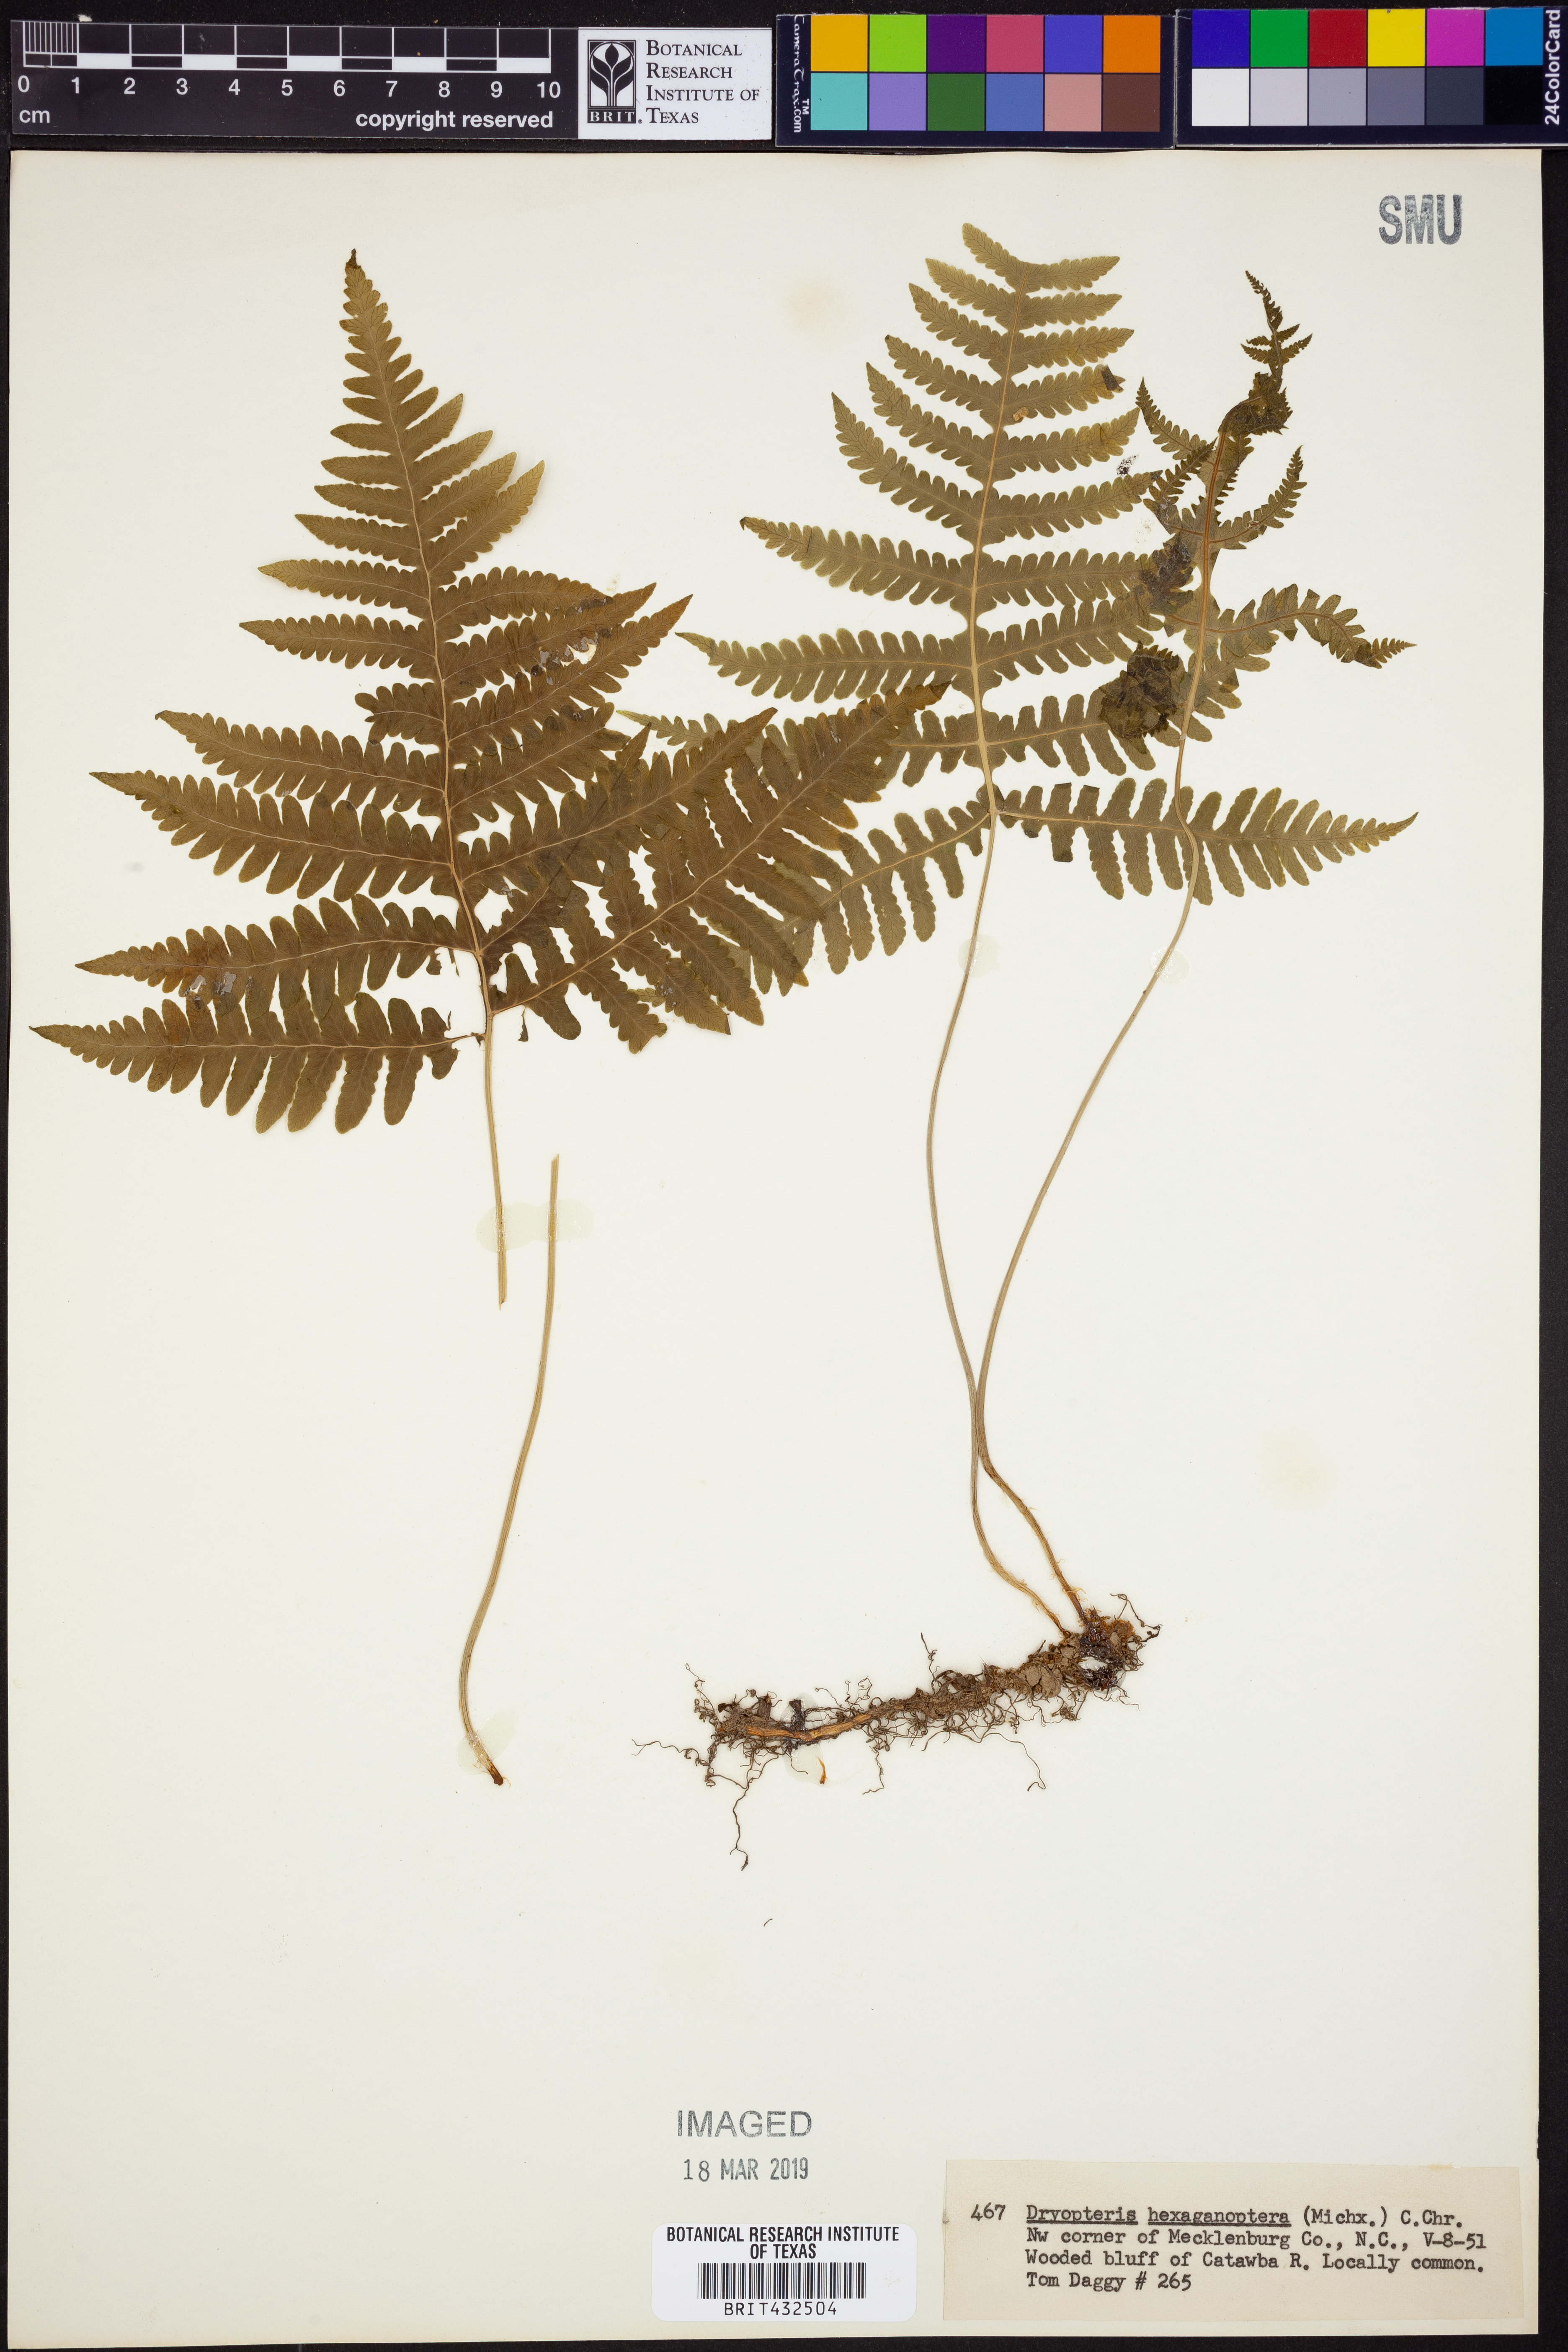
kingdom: Plantae
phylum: Tracheophyta
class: Polypodiopsida
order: Polypodiales
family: Dryopteridaceae
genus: Dryopteris
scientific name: Dryopteris hexagonaptera
